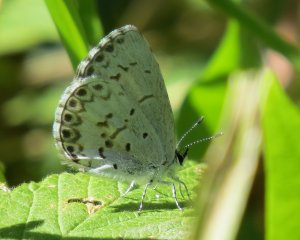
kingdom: Animalia
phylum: Arthropoda
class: Insecta
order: Lepidoptera
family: Lycaenidae
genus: Cyaniris
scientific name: Cyaniris neglecta
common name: Summer Azure
